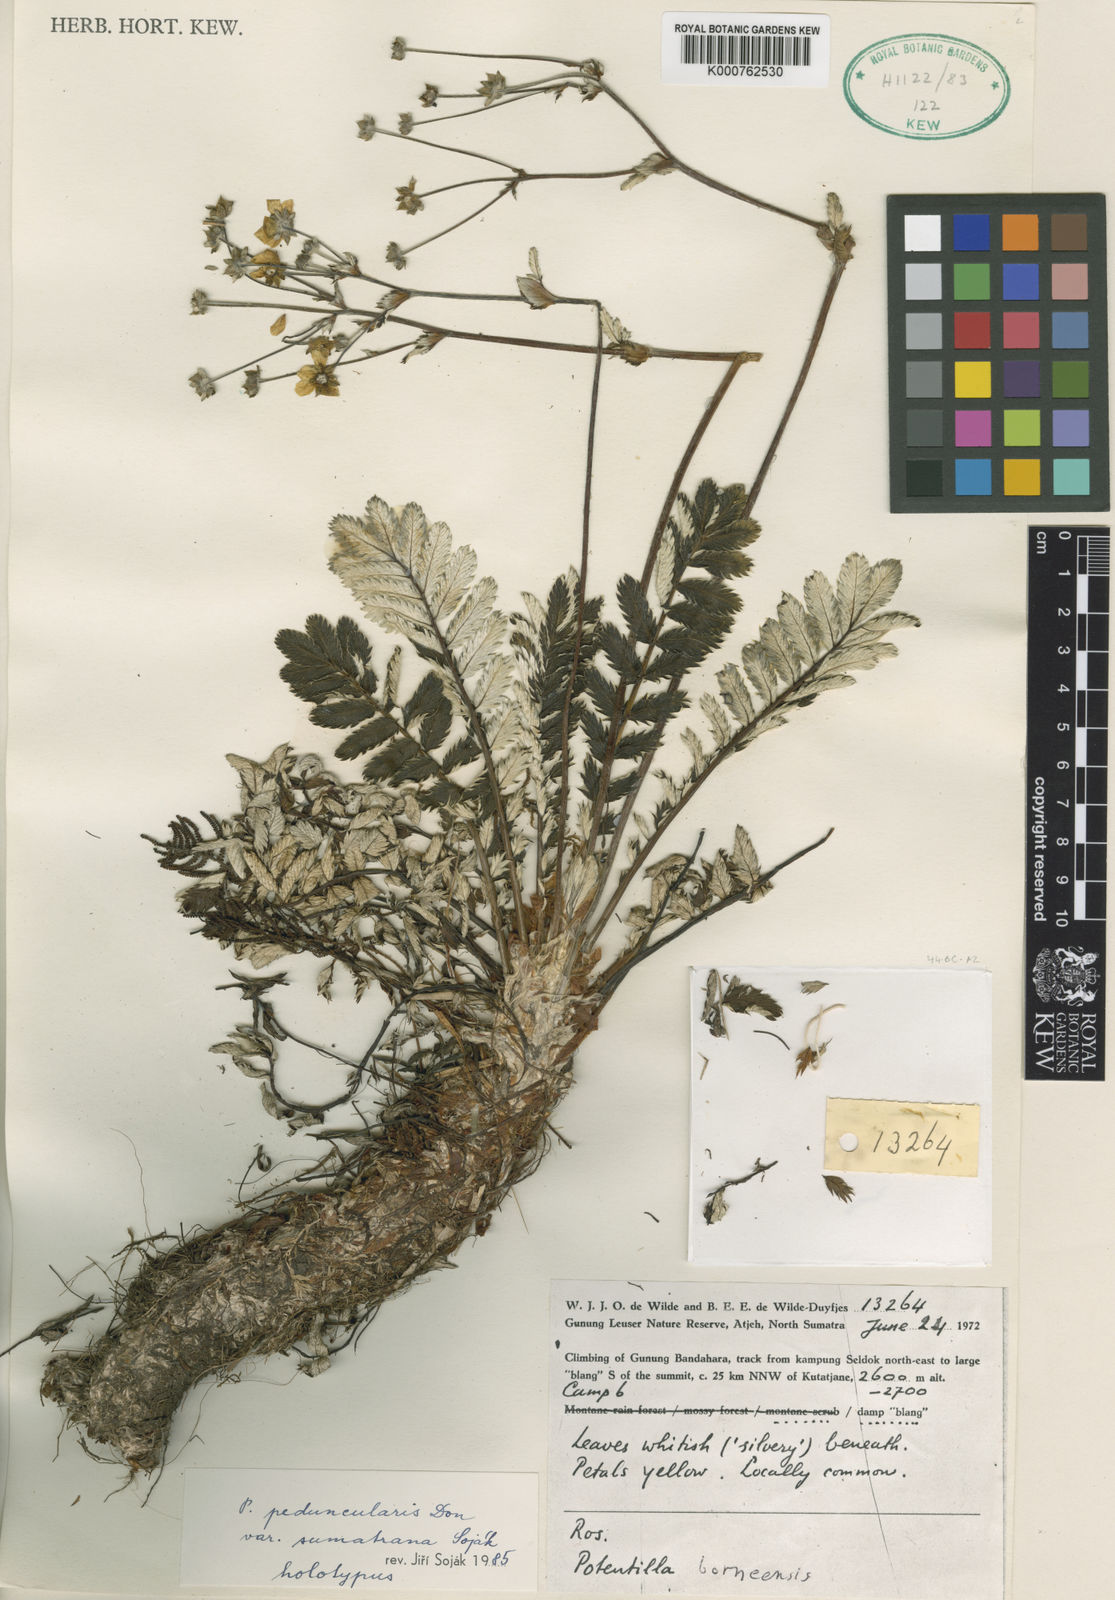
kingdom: Plantae
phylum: Tracheophyta
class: Magnoliopsida
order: Rosales
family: Rosaceae
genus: Argentina
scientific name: Argentina peduncularis
